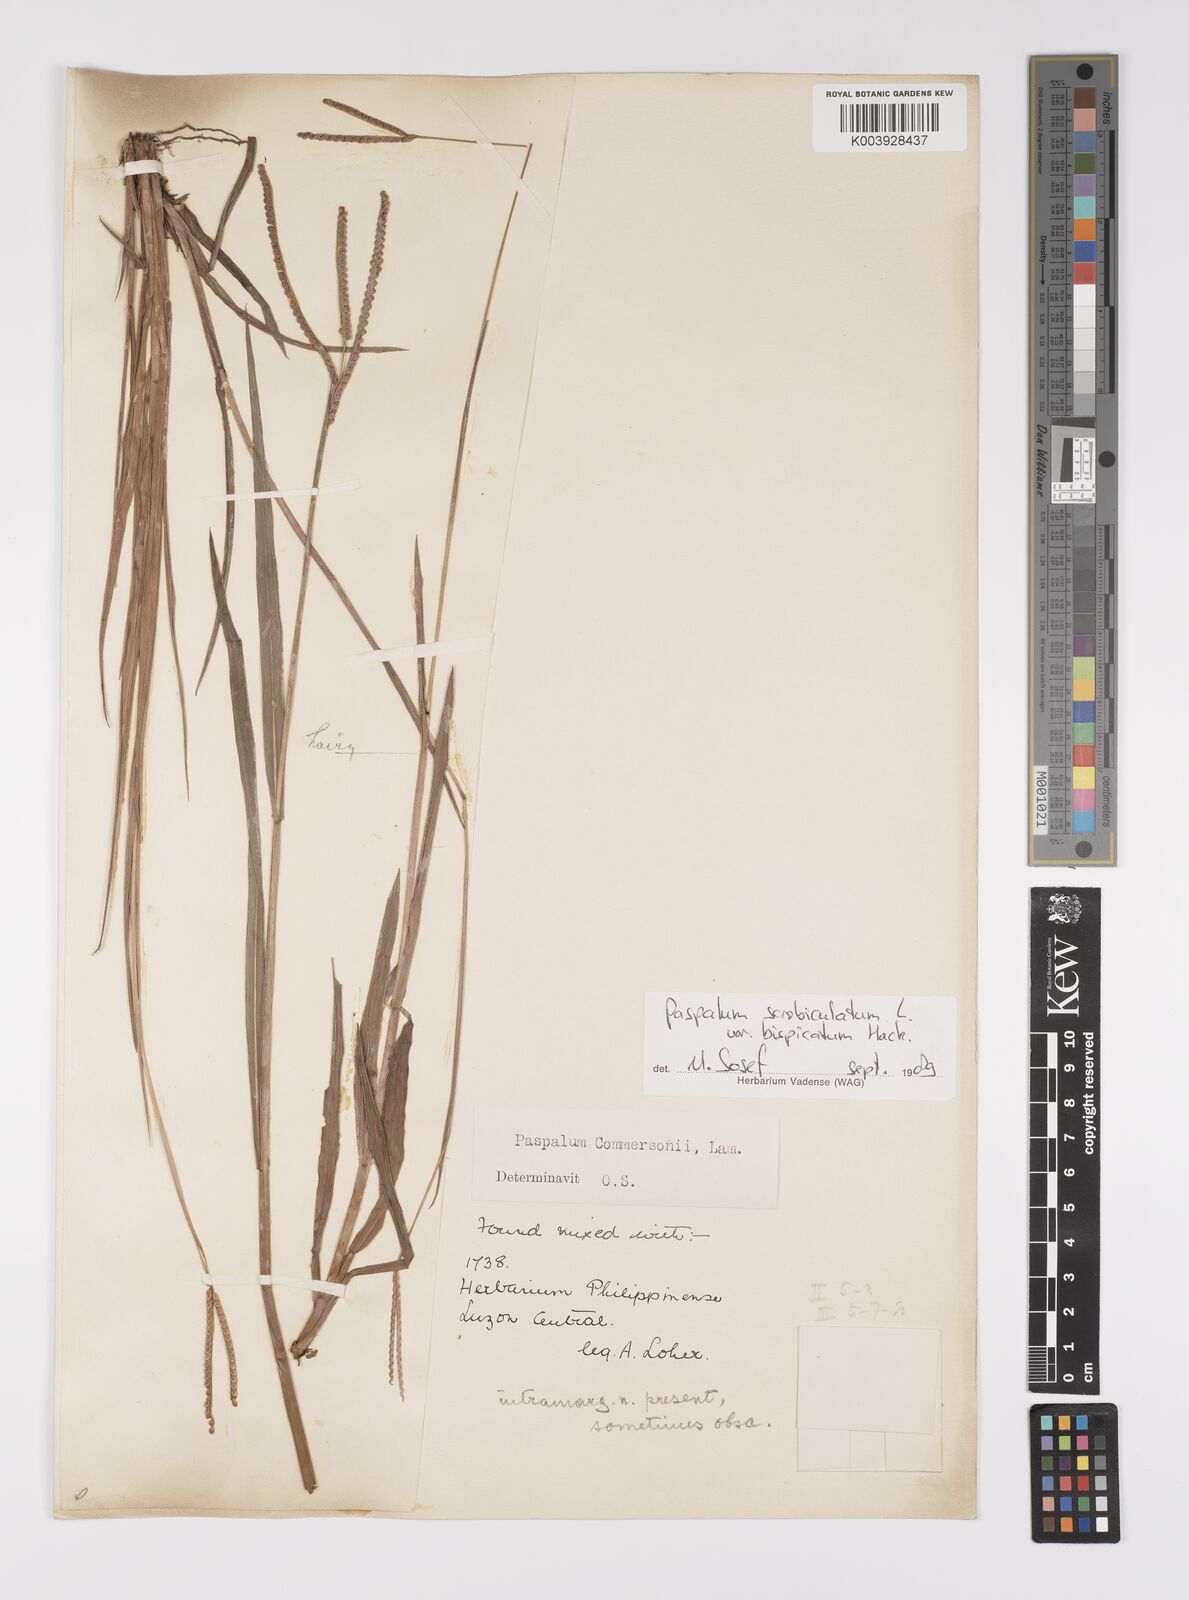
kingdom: Plantae
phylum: Tracheophyta
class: Liliopsida
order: Poales
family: Poaceae
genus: Paspalum
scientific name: Paspalum scrobiculatum
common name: Kodo millet
